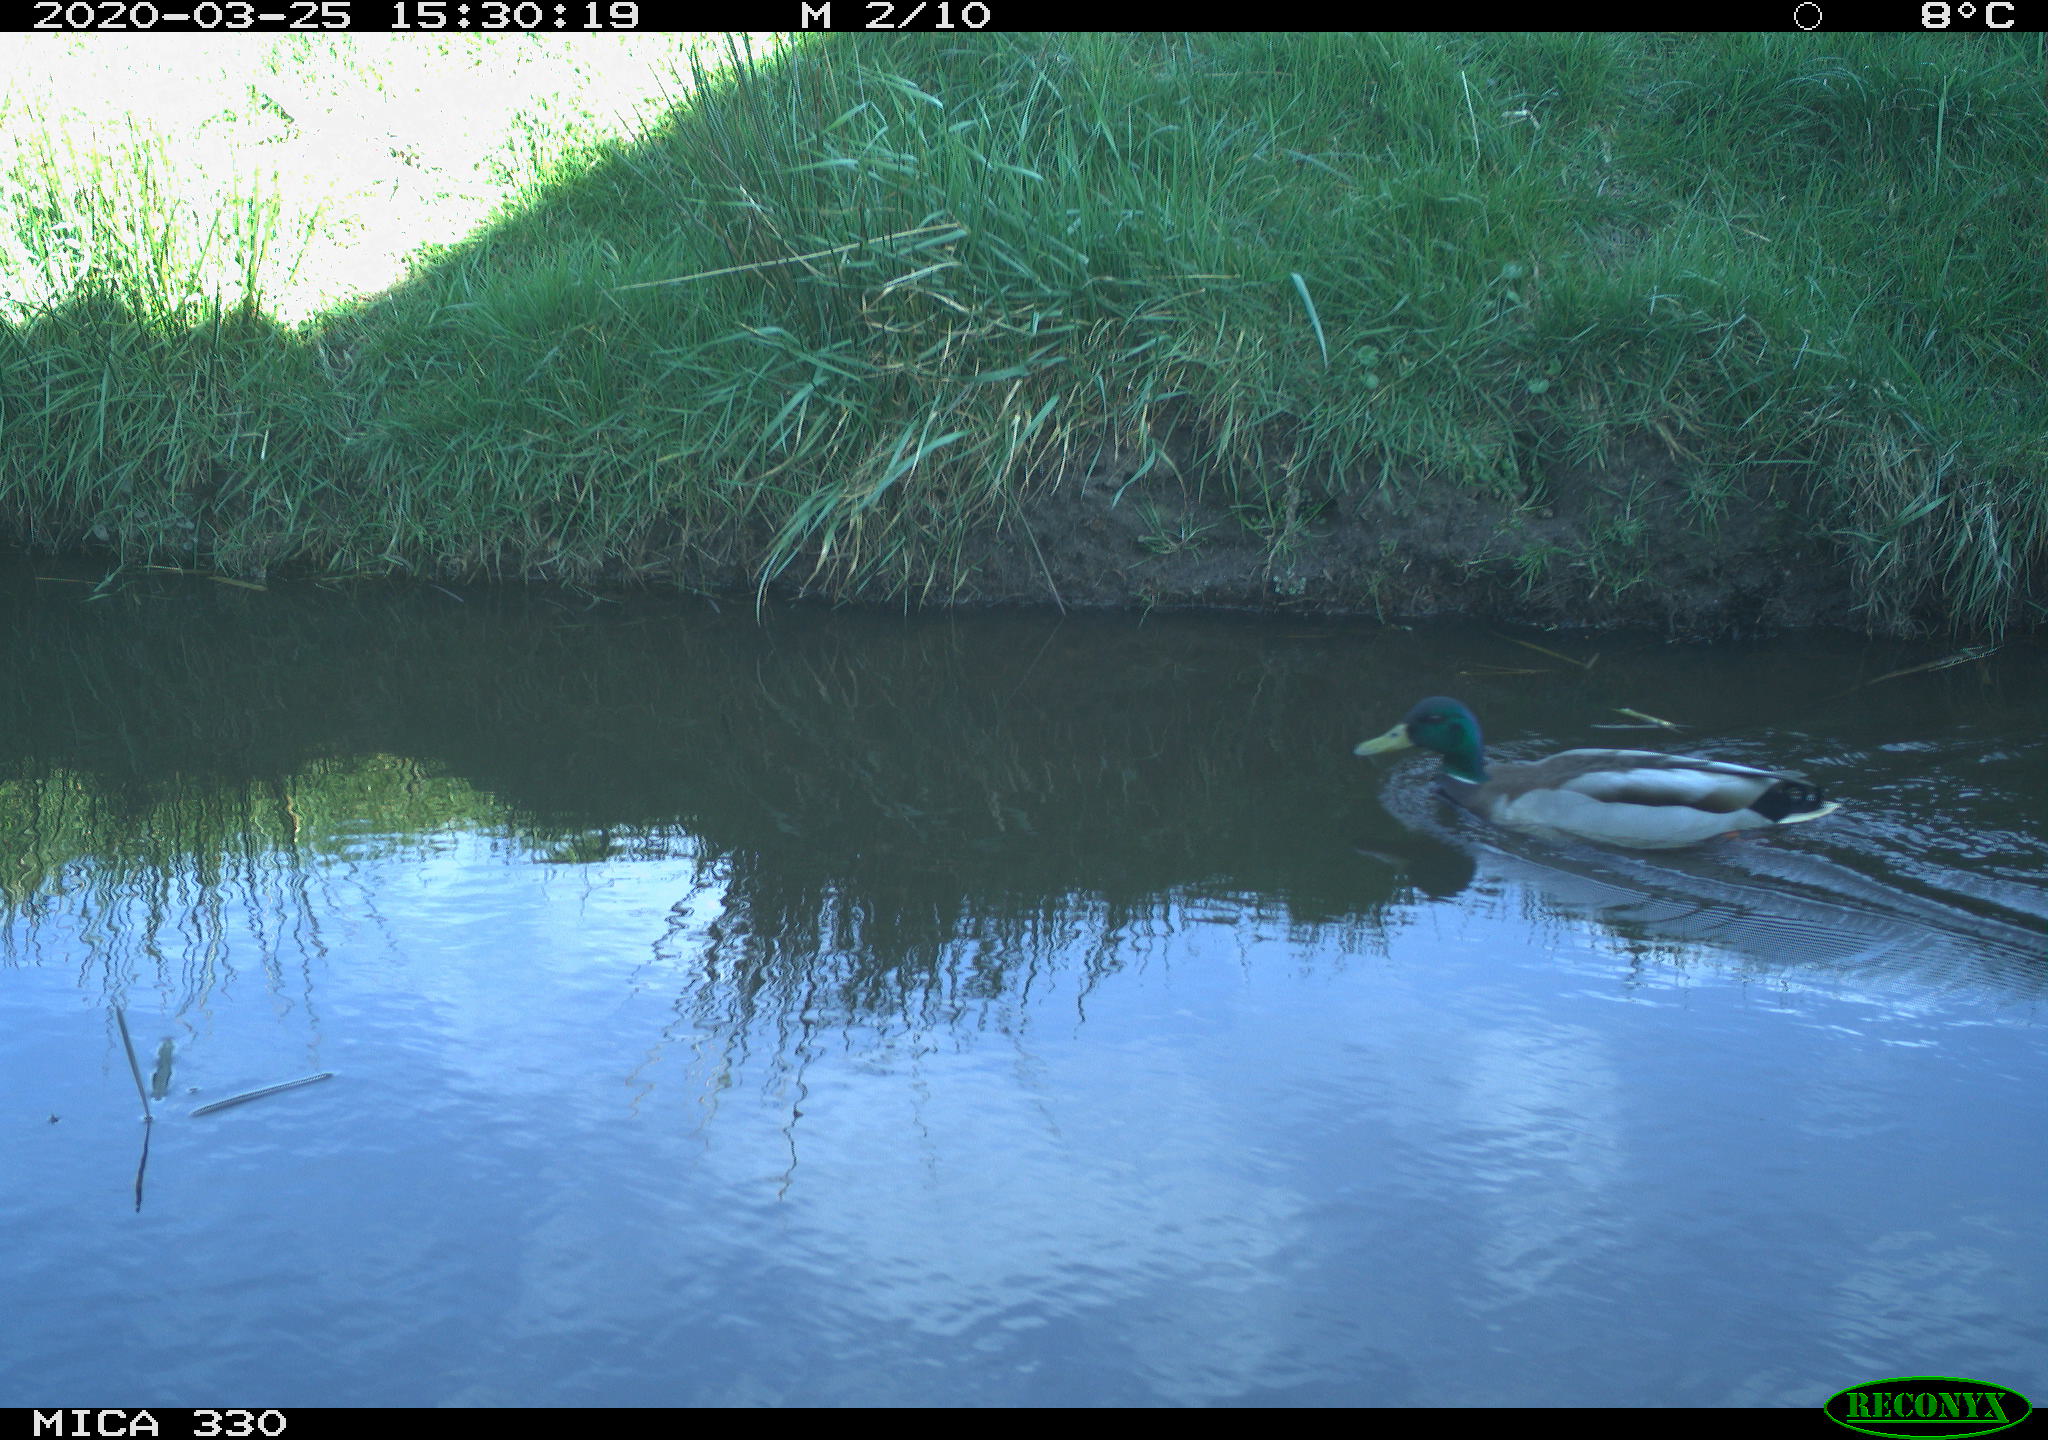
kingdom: Animalia
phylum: Chordata
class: Aves
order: Anseriformes
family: Anatidae
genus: Anas
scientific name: Anas platyrhynchos
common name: Mallard
